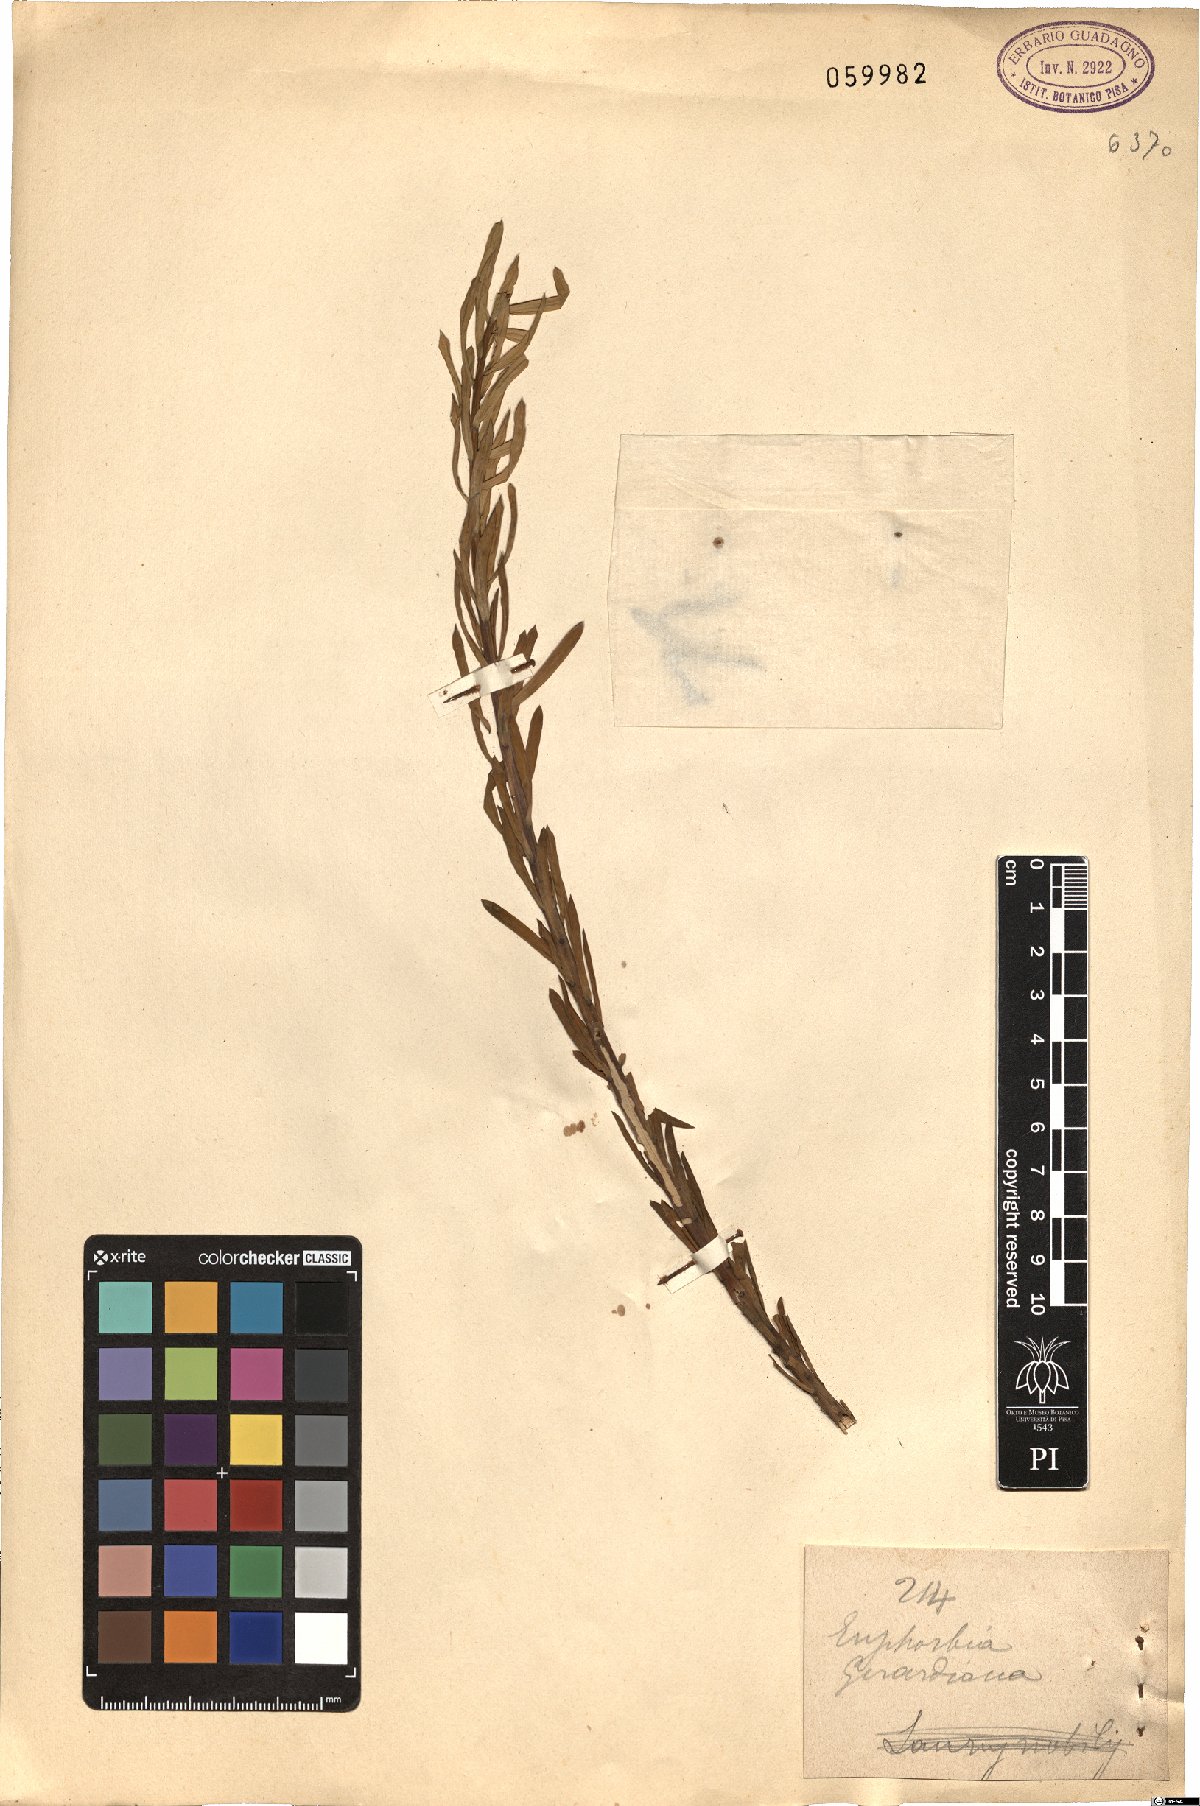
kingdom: Plantae
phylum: Tracheophyta
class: Magnoliopsida
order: Malpighiales
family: Euphorbiaceae
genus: Euphorbia
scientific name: Euphorbia seguieriana
